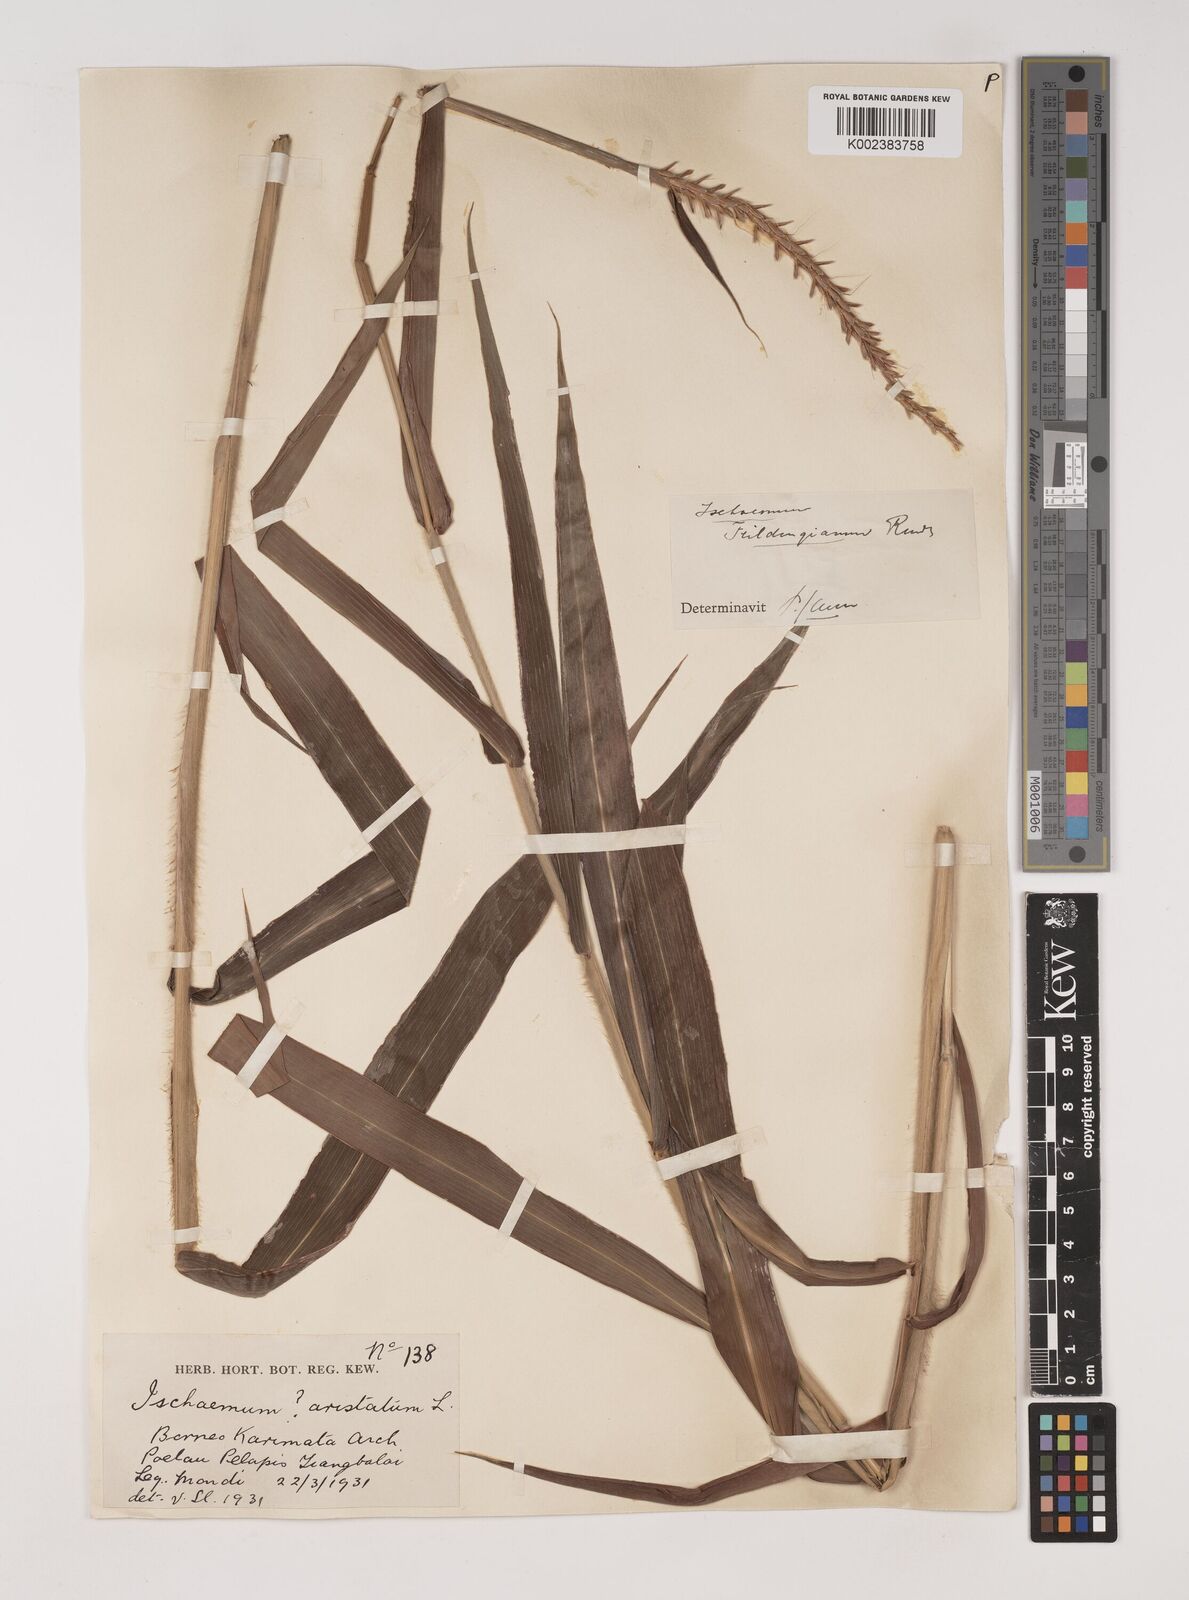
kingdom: Plantae
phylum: Tracheophyta
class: Liliopsida
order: Poales
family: Poaceae
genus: Ischaemum
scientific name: Ischaemum barbatum
